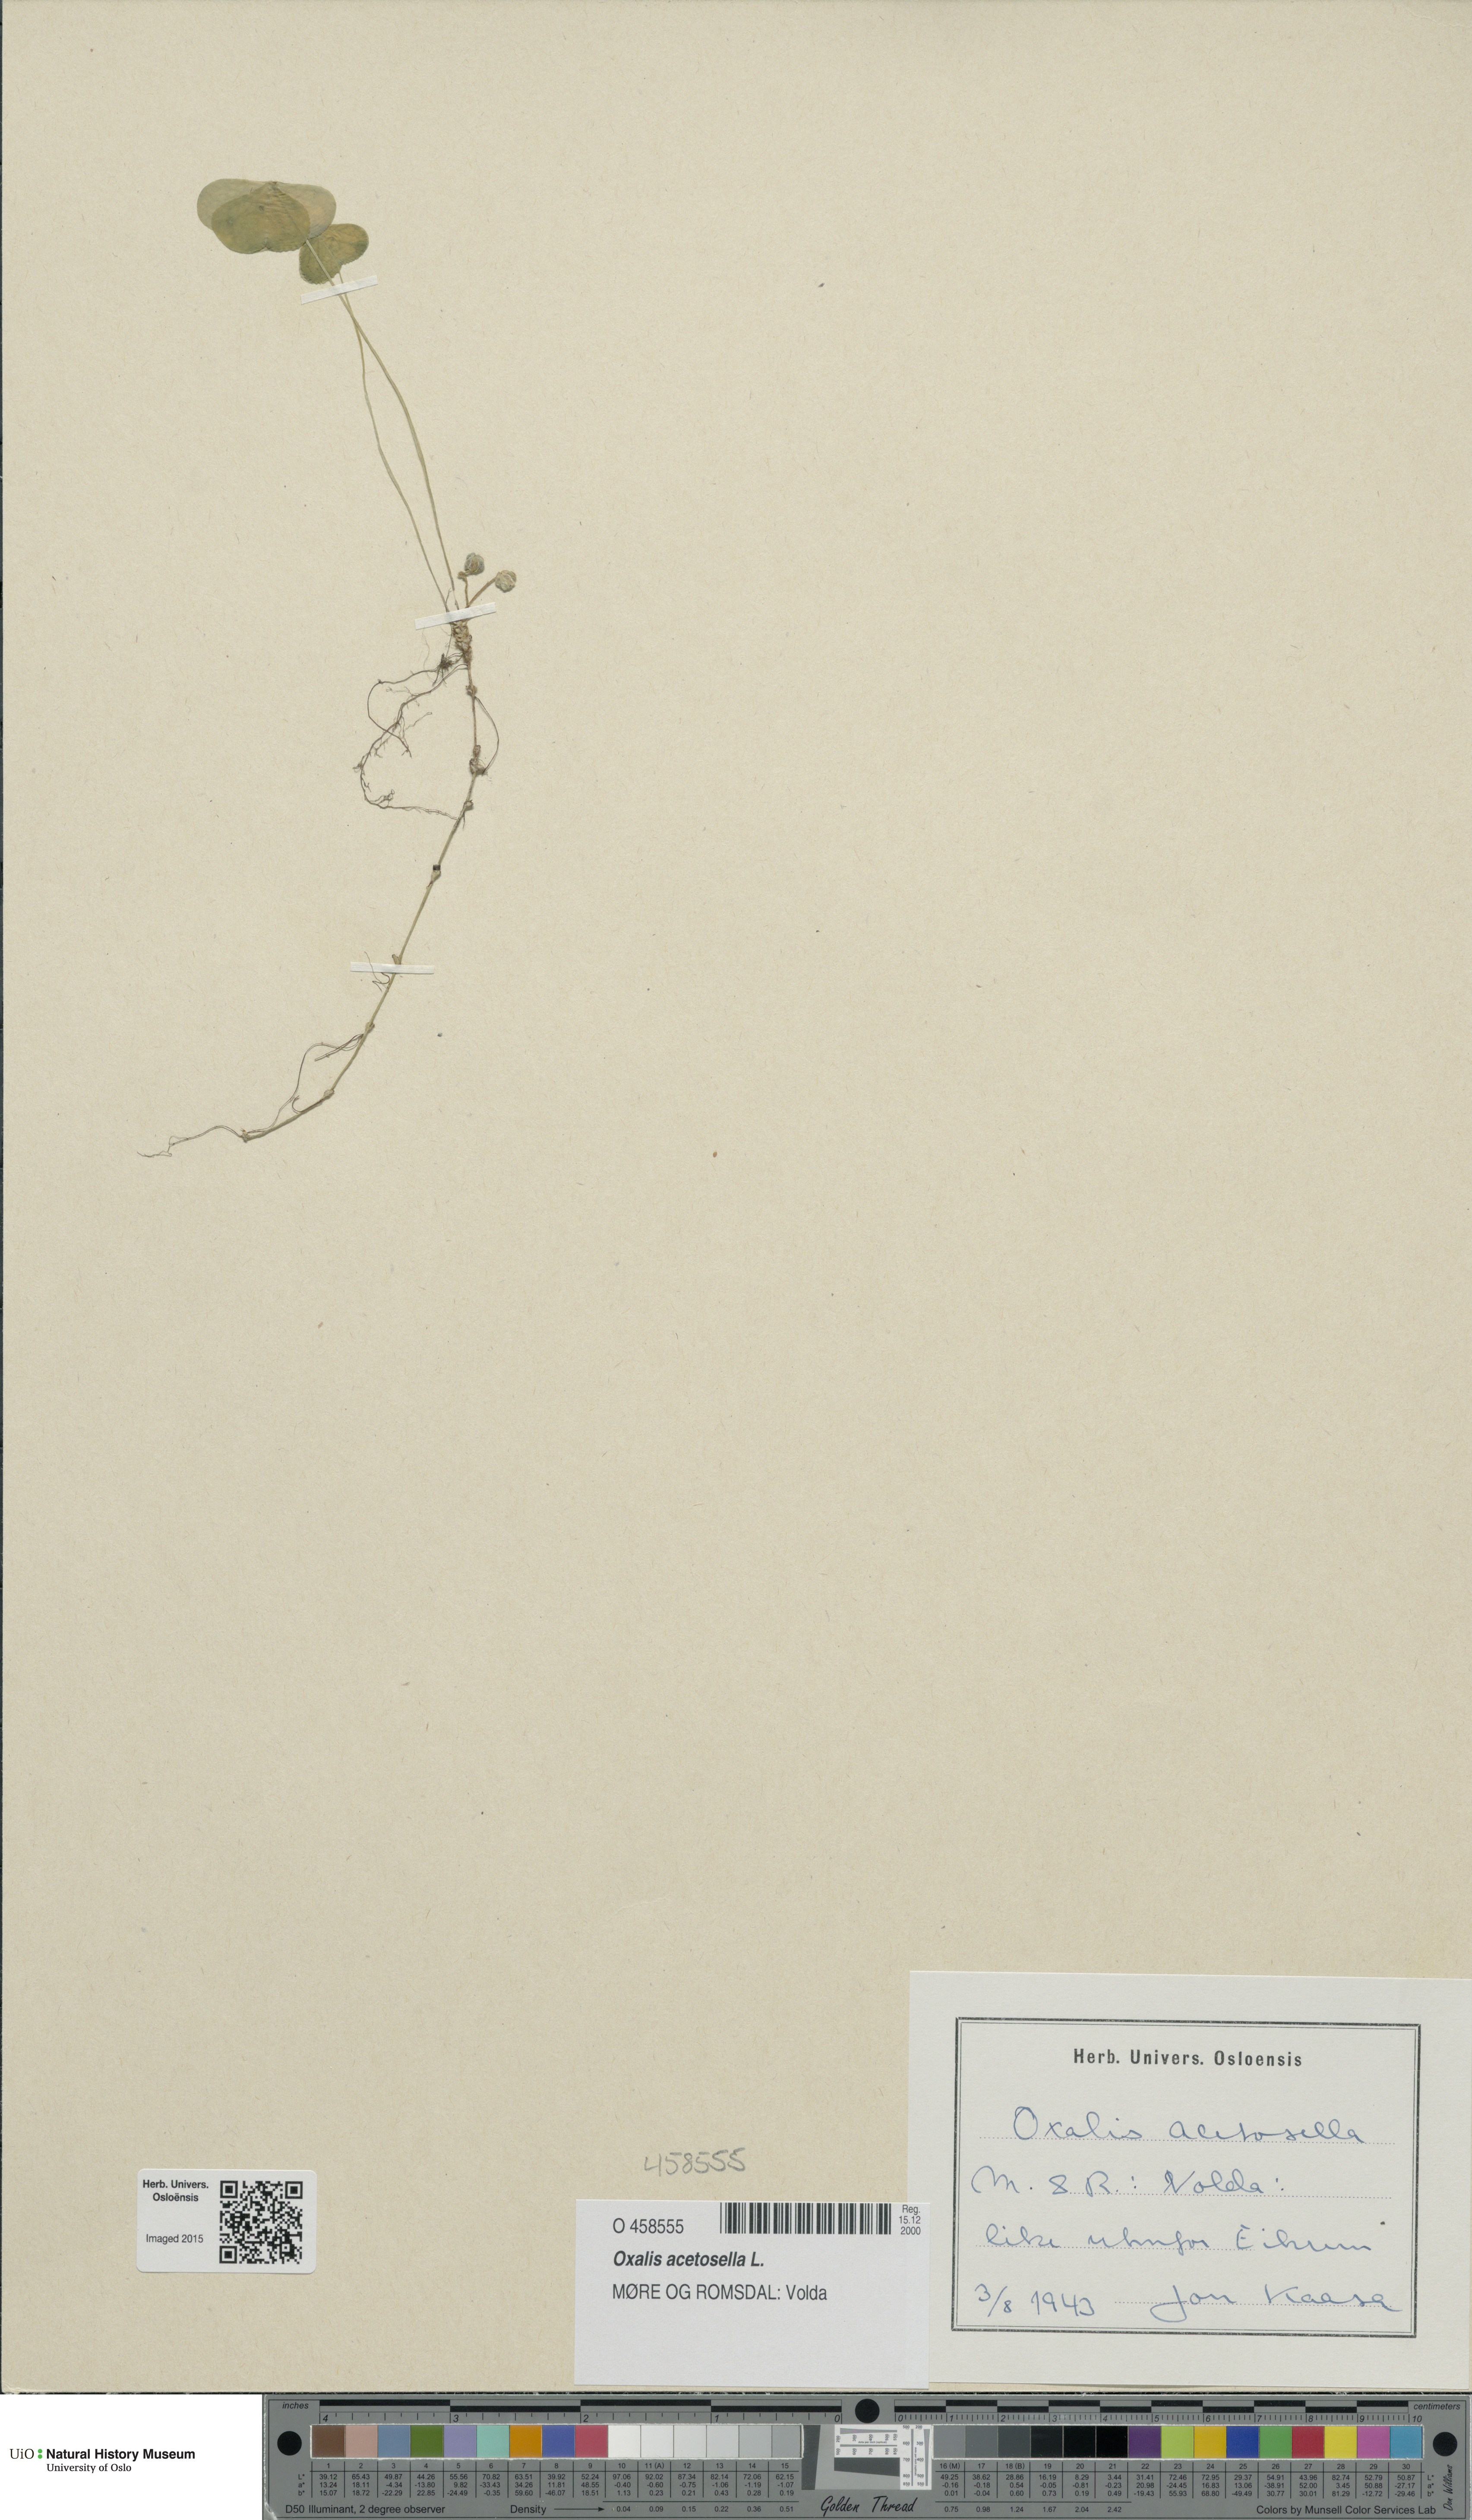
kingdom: Plantae
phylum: Tracheophyta
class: Magnoliopsida
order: Oxalidales
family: Oxalidaceae
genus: Oxalis
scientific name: Oxalis acetosella
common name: Wood-sorrel
